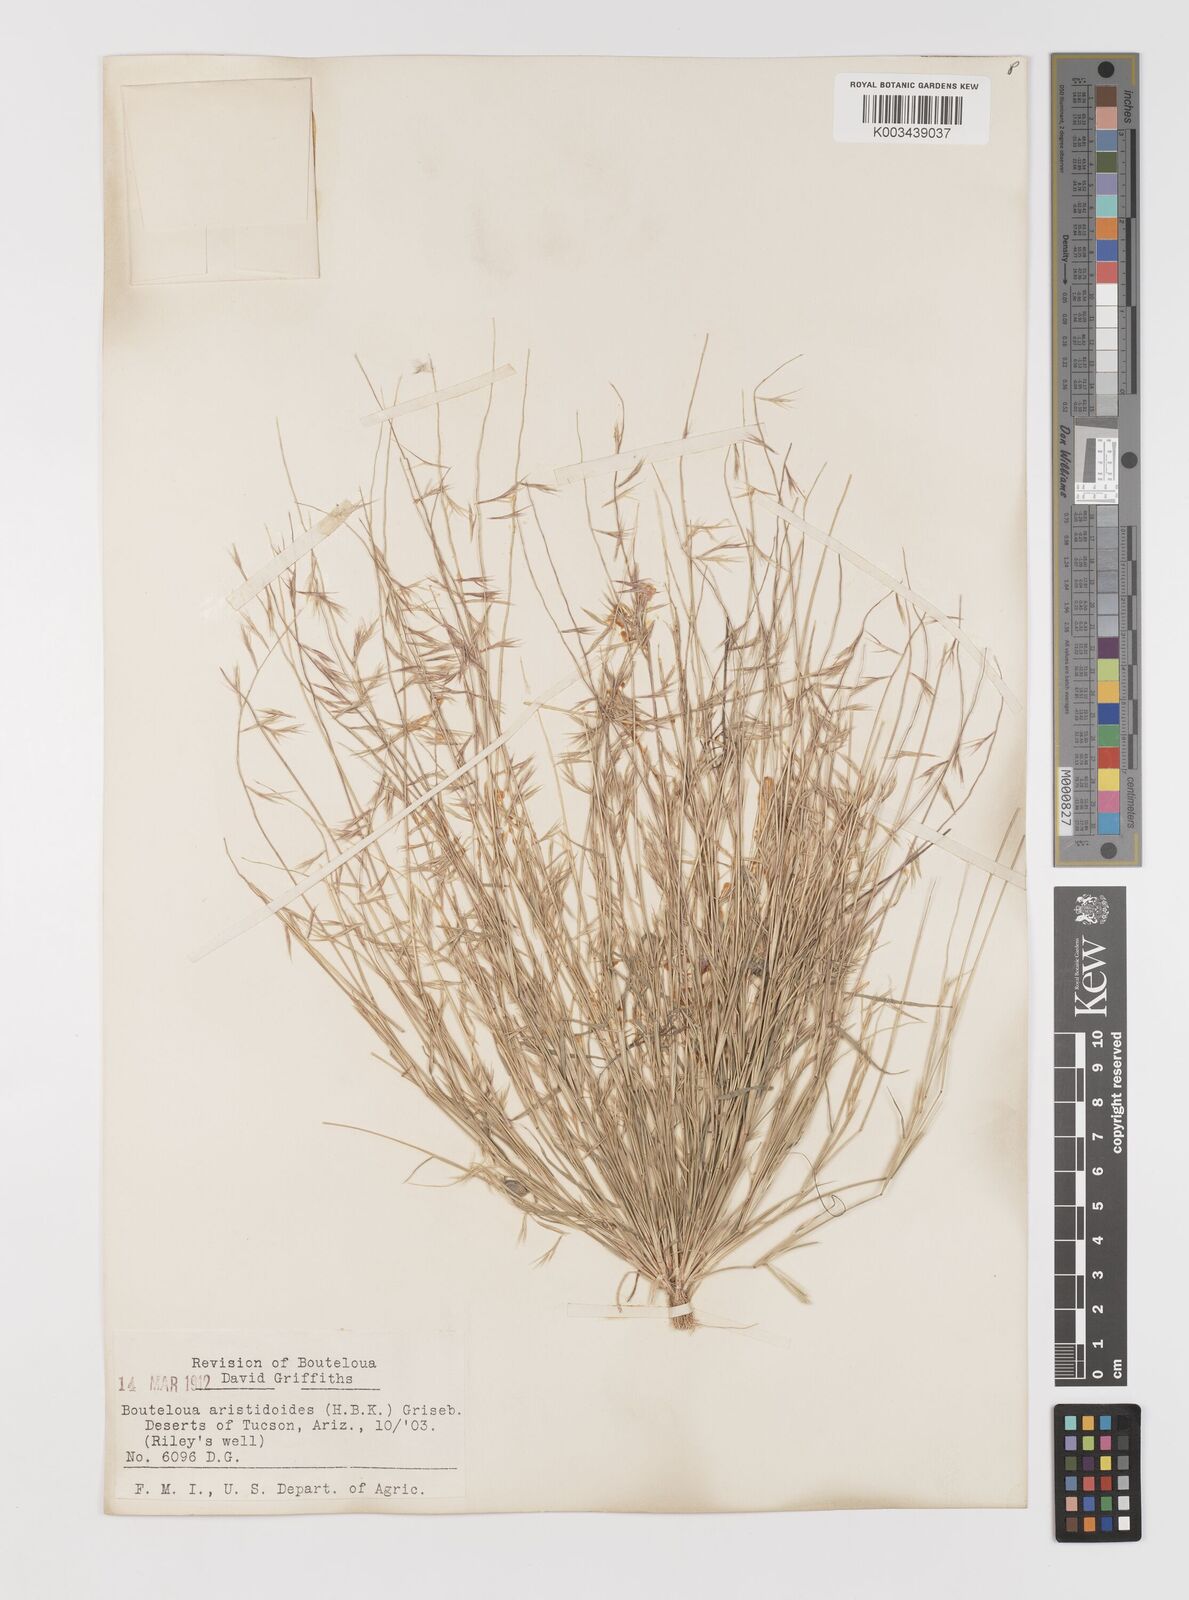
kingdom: Plantae
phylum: Tracheophyta
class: Liliopsida
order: Poales
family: Poaceae
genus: Bouteloua
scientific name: Bouteloua aristidoides
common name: Needle grama
